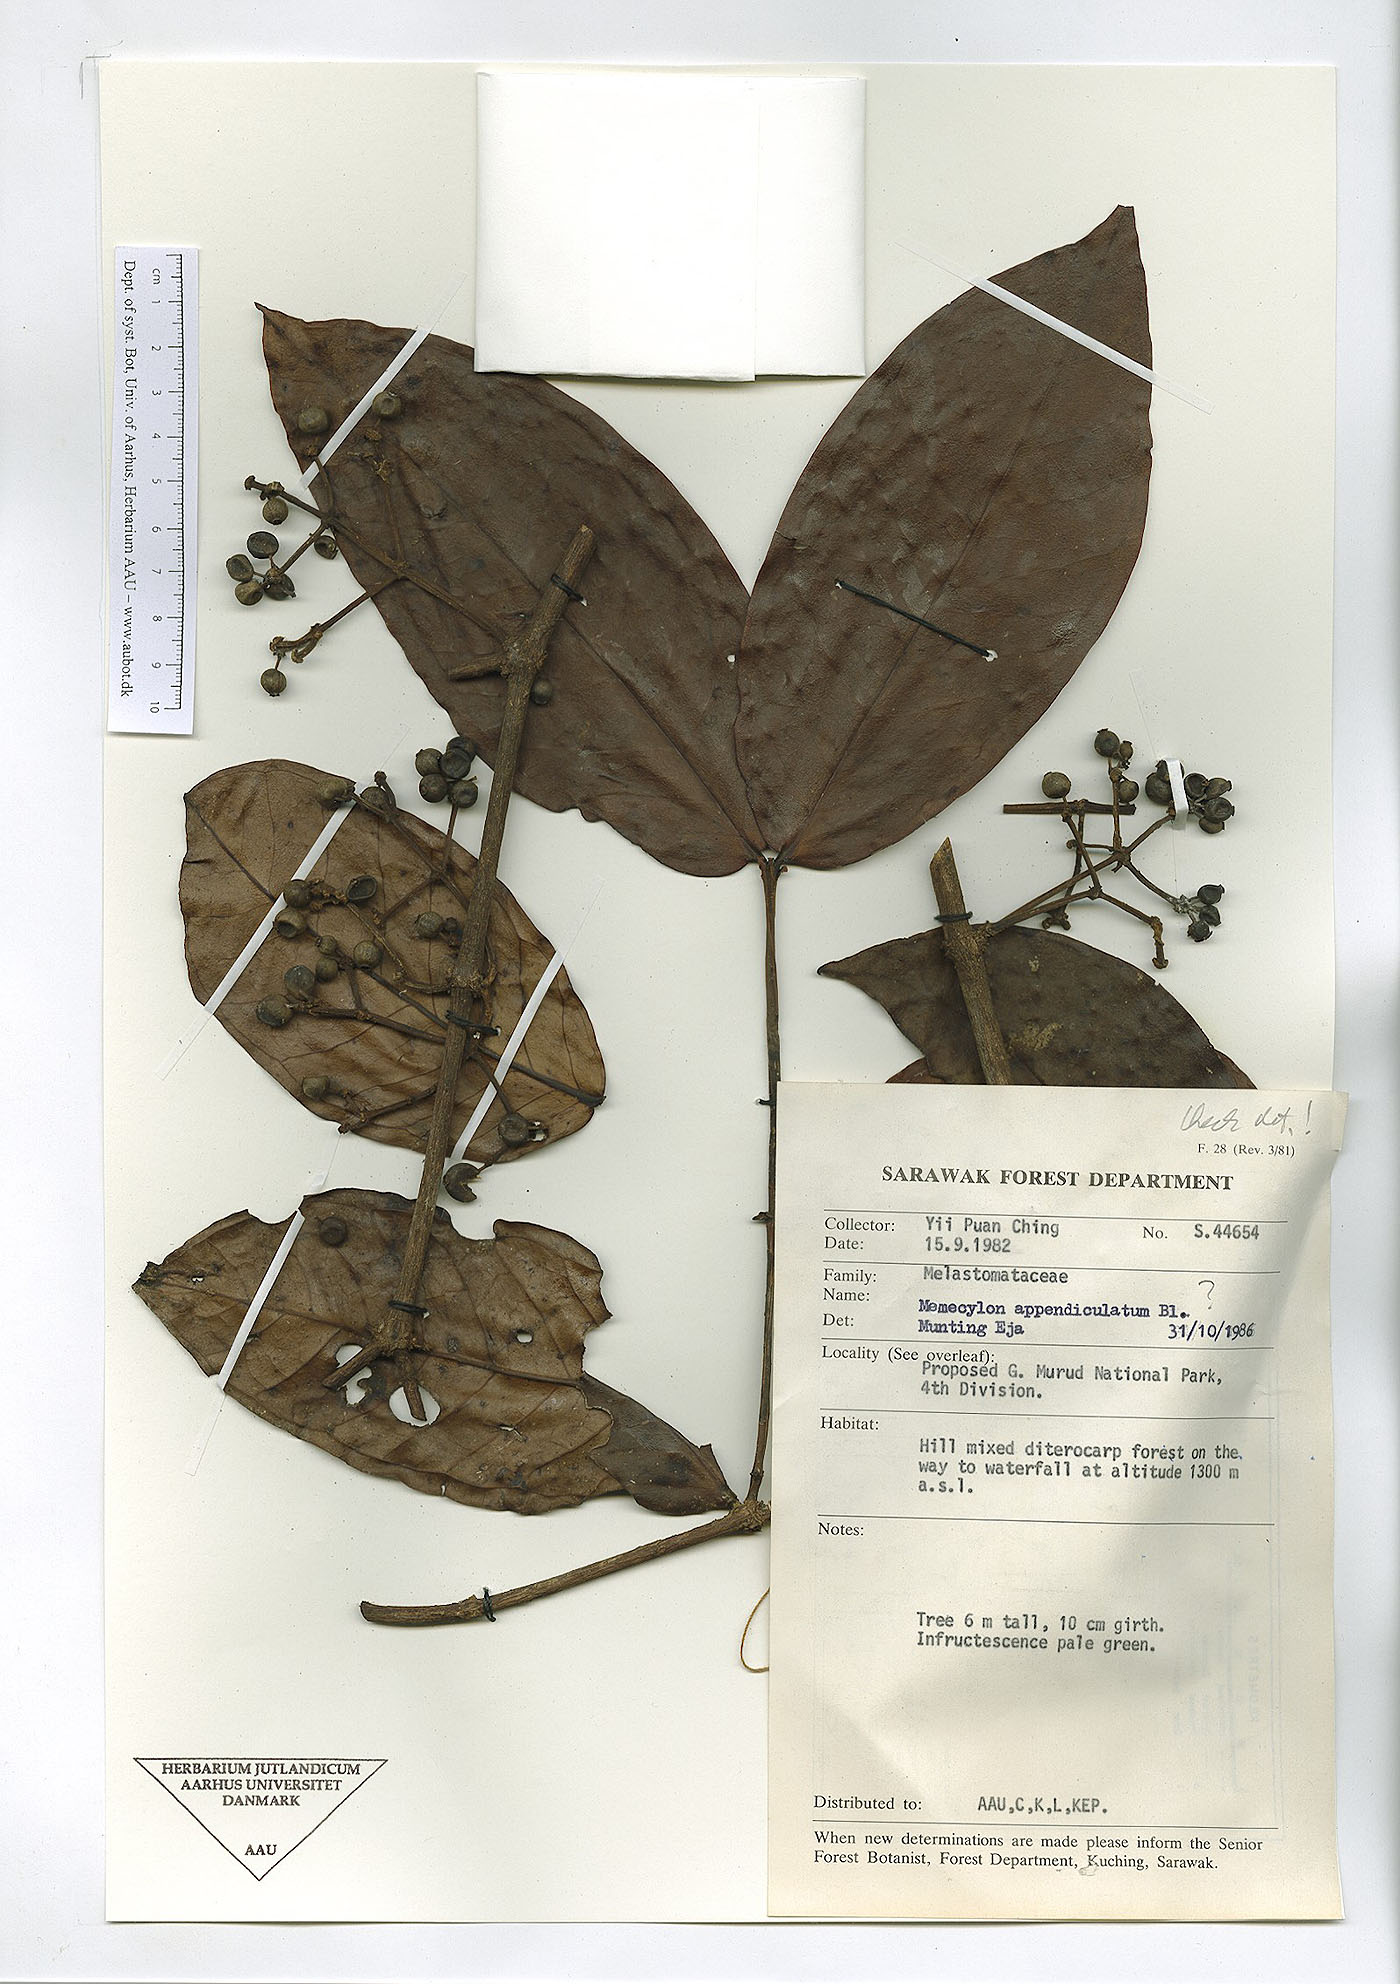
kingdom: Plantae
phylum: Tracheophyta
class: Magnoliopsida
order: Myrtales
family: Melastomataceae
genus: Memecylon
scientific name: Memecylon paniculatum
